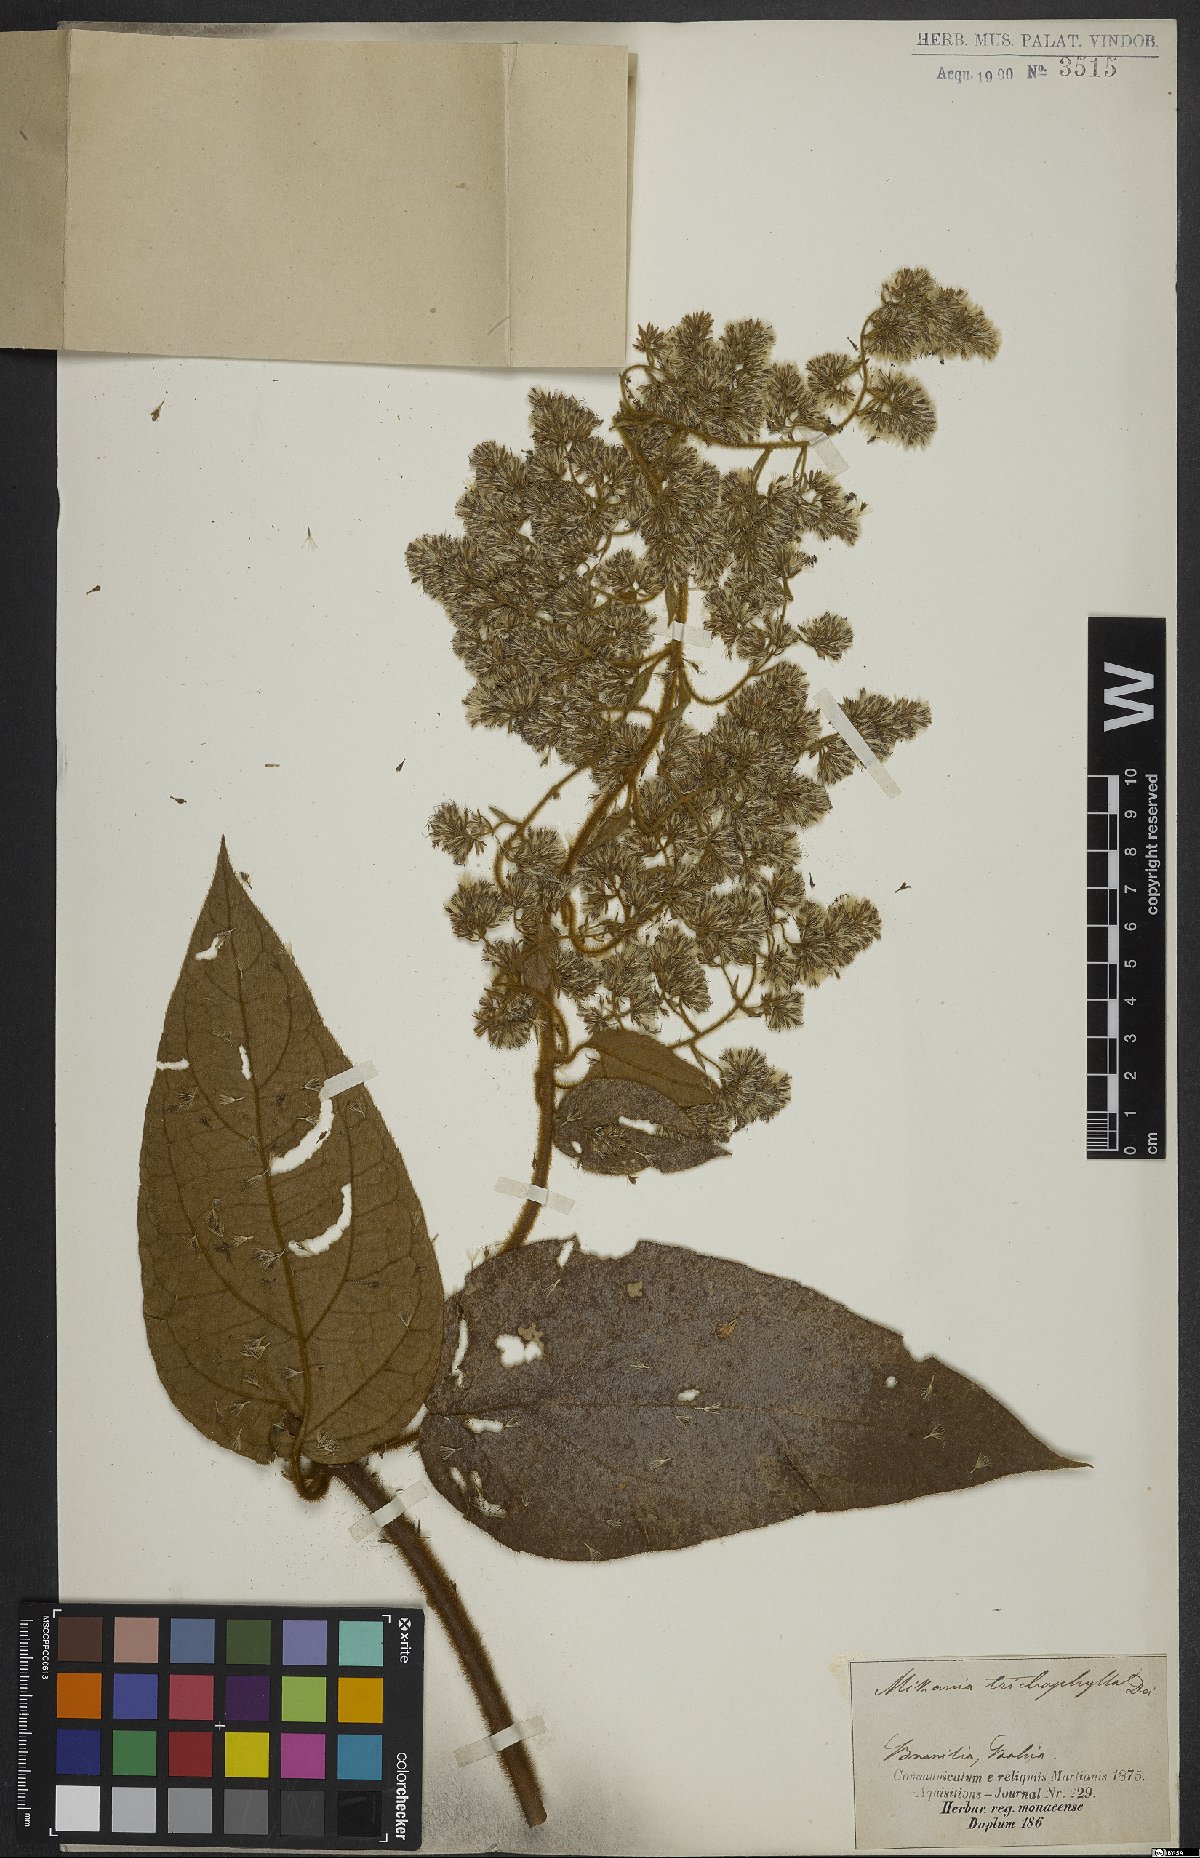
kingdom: Plantae
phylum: Tracheophyta
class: Magnoliopsida
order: Asterales
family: Asteraceae
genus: Mikania
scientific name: Mikania trichophila
